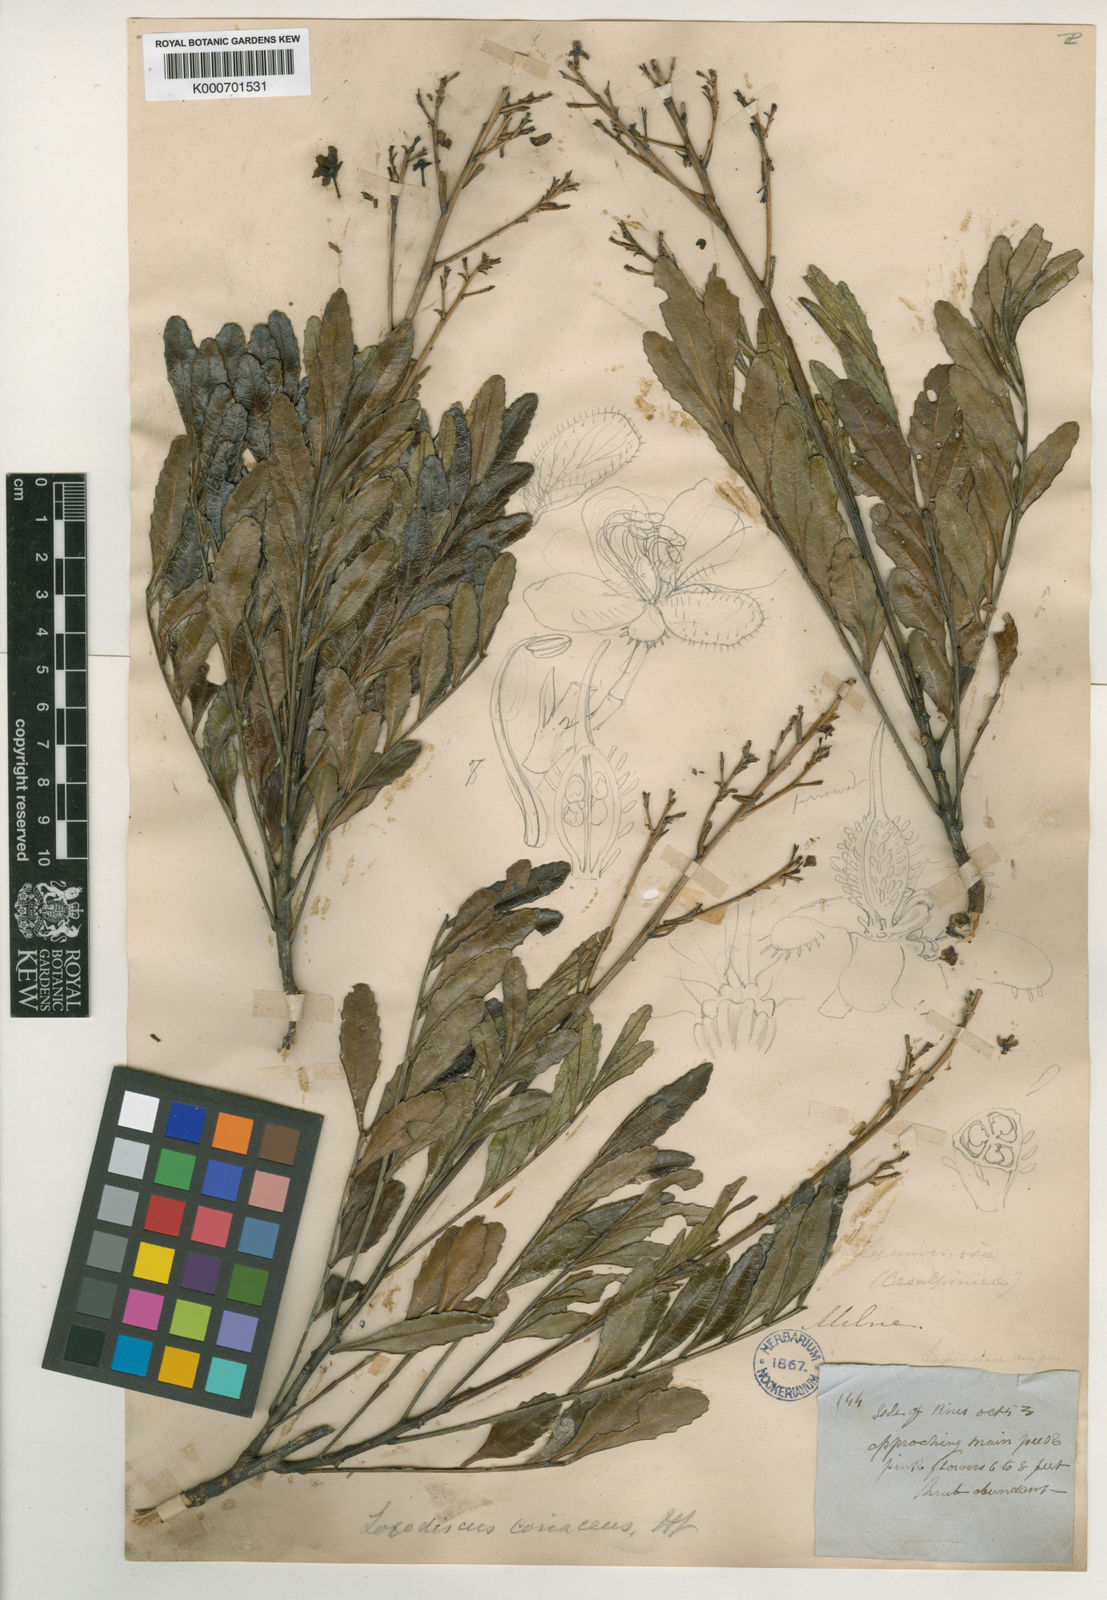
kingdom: Plantae
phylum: Tracheophyta
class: Magnoliopsida
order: Sapindales
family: Sapindaceae
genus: Loxodiscus
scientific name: Loxodiscus coriaceus
